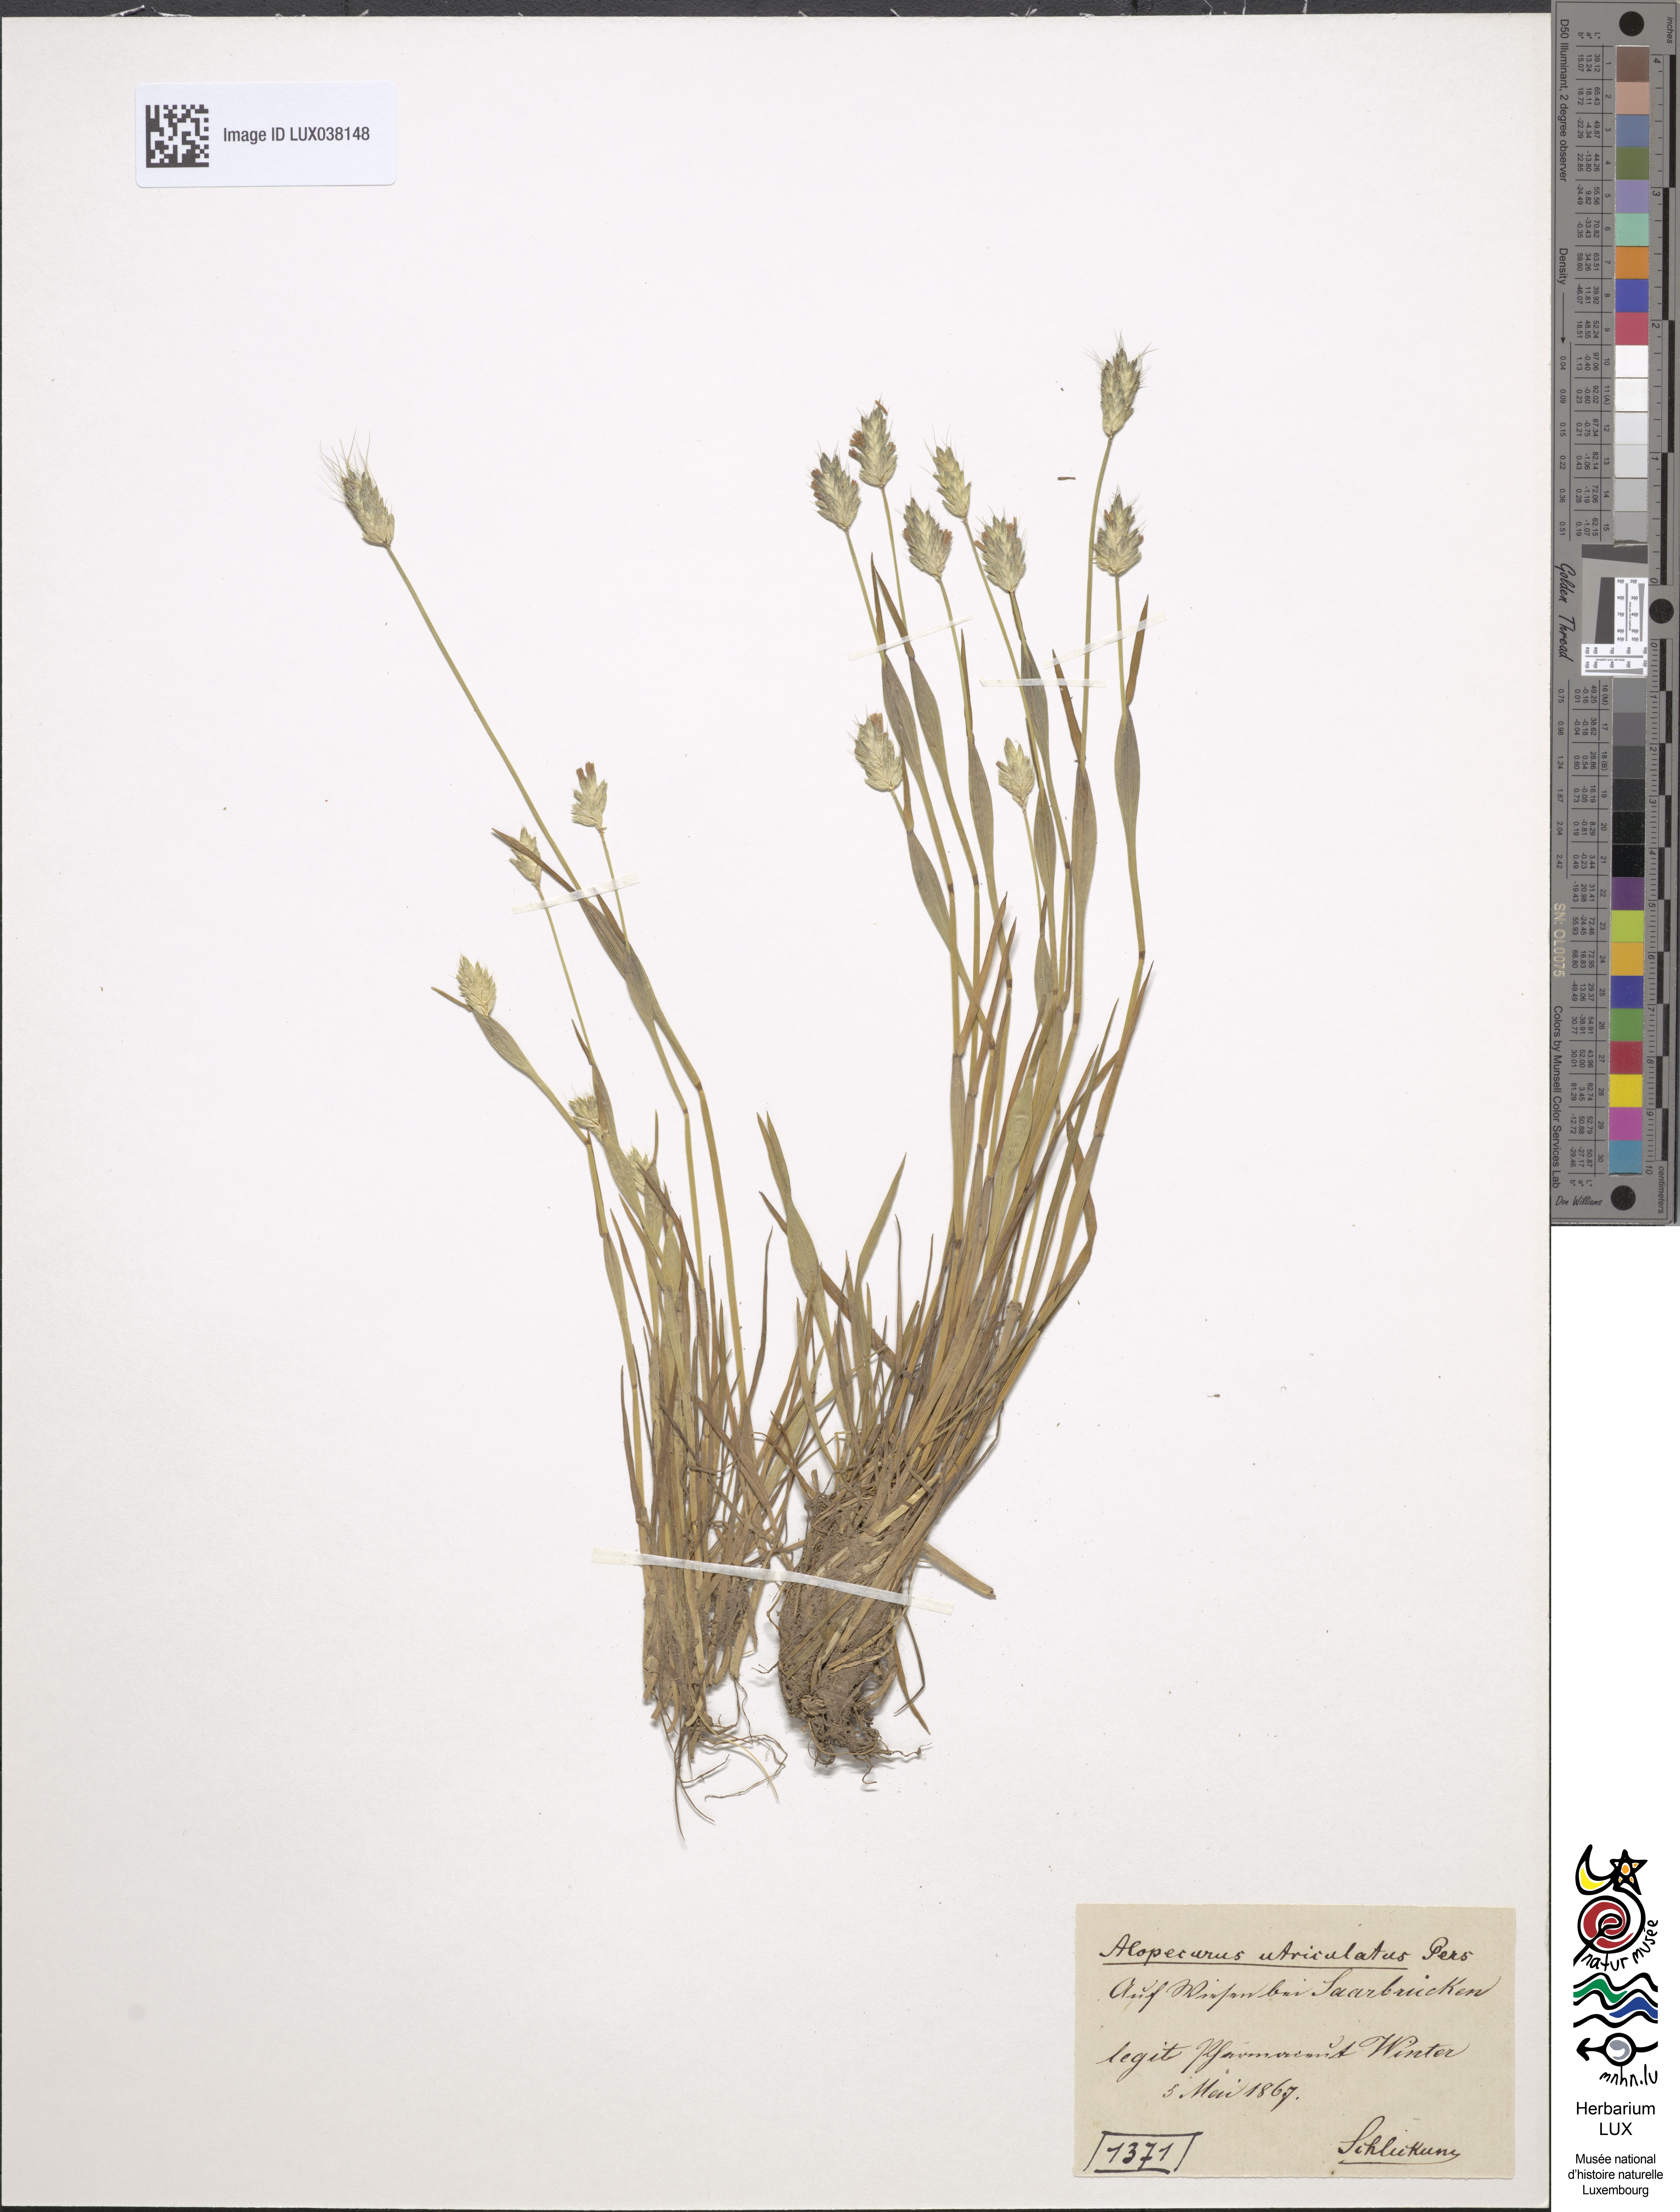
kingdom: Plantae
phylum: Tracheophyta
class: Liliopsida
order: Poales
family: Poaceae
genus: Alopecurus
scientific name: Alopecurus rendlei
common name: Rendle's meadow foxtail
